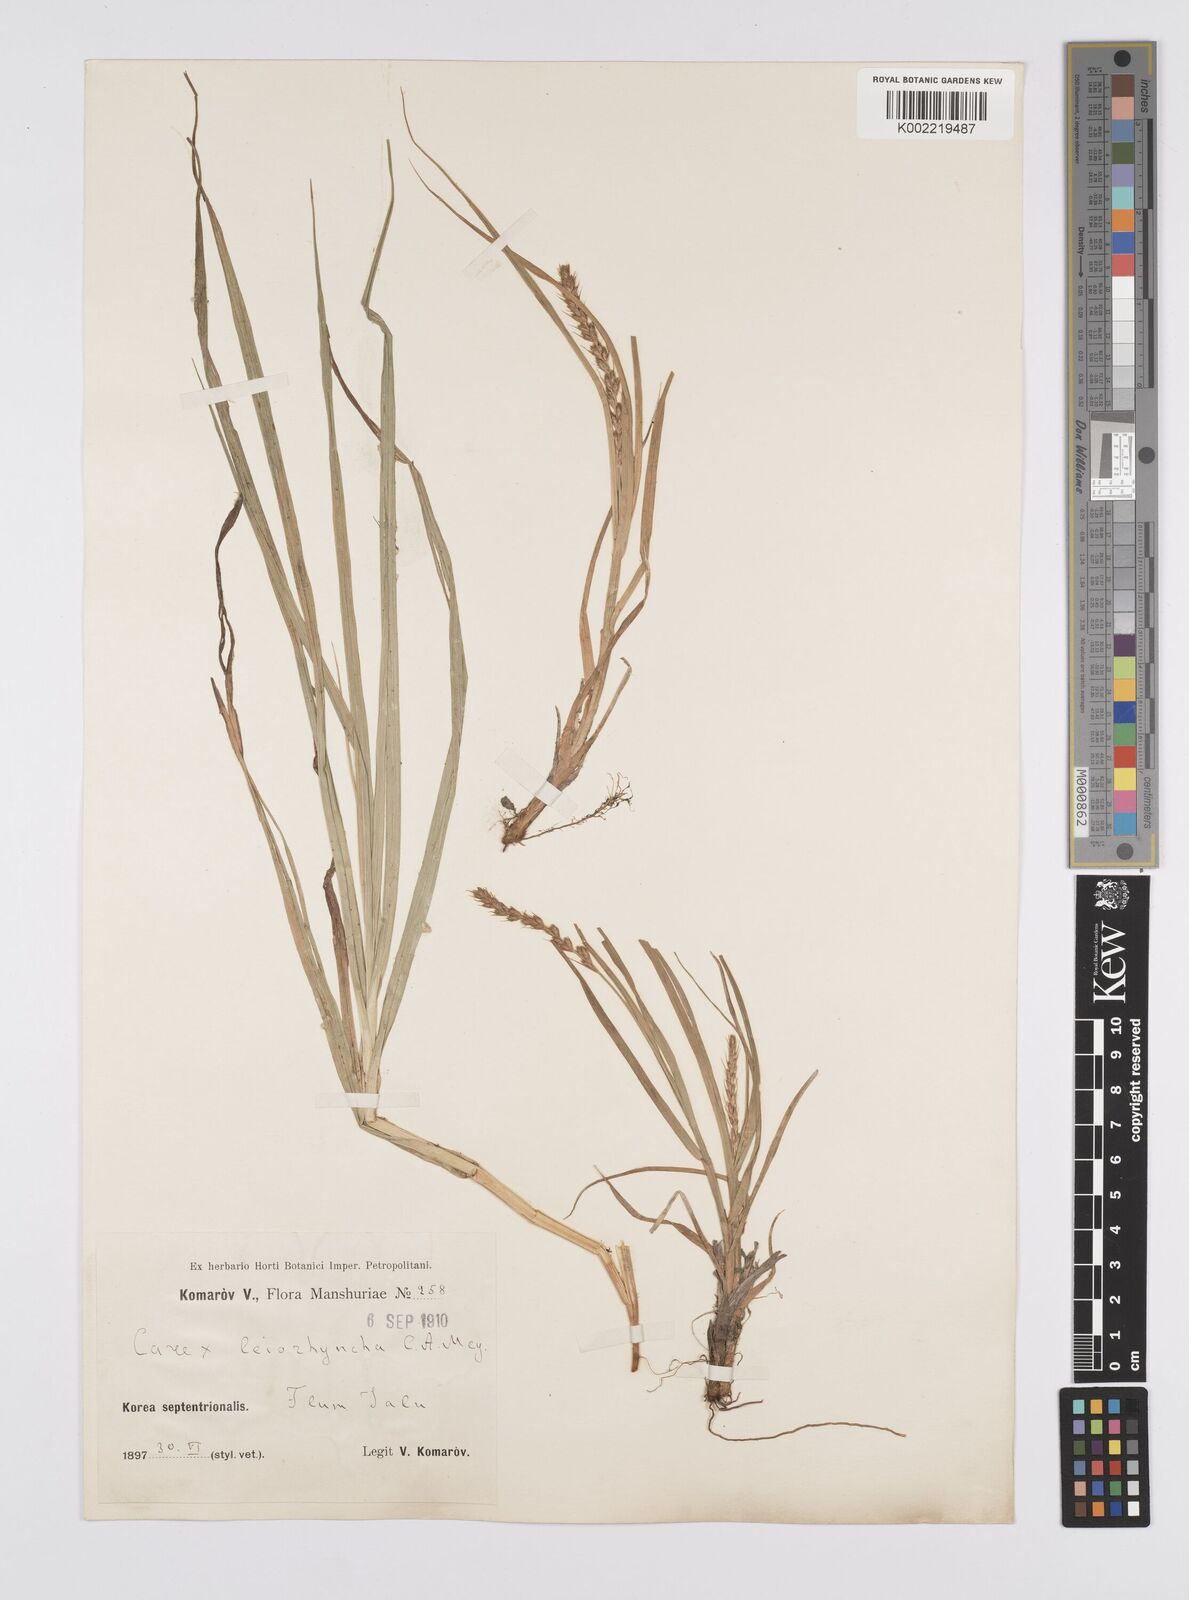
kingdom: Plantae
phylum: Tracheophyta
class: Liliopsida
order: Poales
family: Cyperaceae
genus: Carex
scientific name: Carex leiorhyncha
